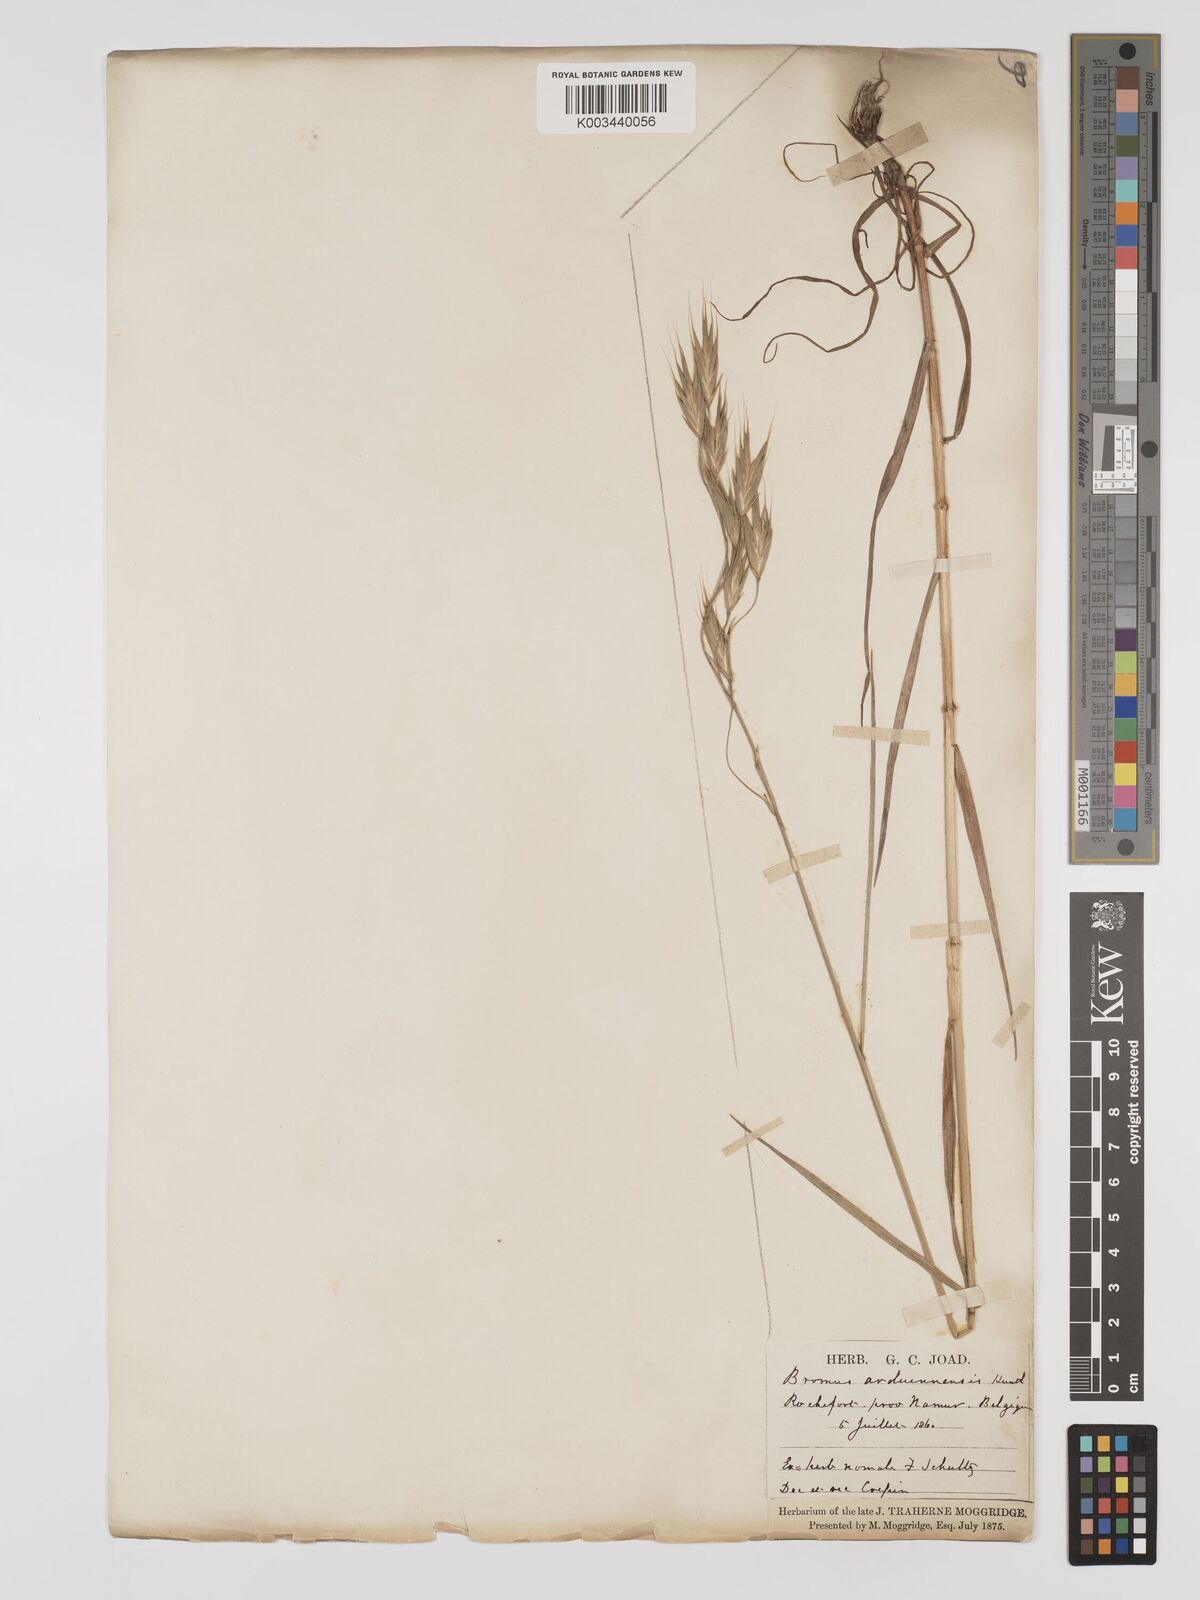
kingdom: Plantae
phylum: Tracheophyta
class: Liliopsida
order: Poales
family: Poaceae
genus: Bromus
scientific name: Bromus bromoideus
